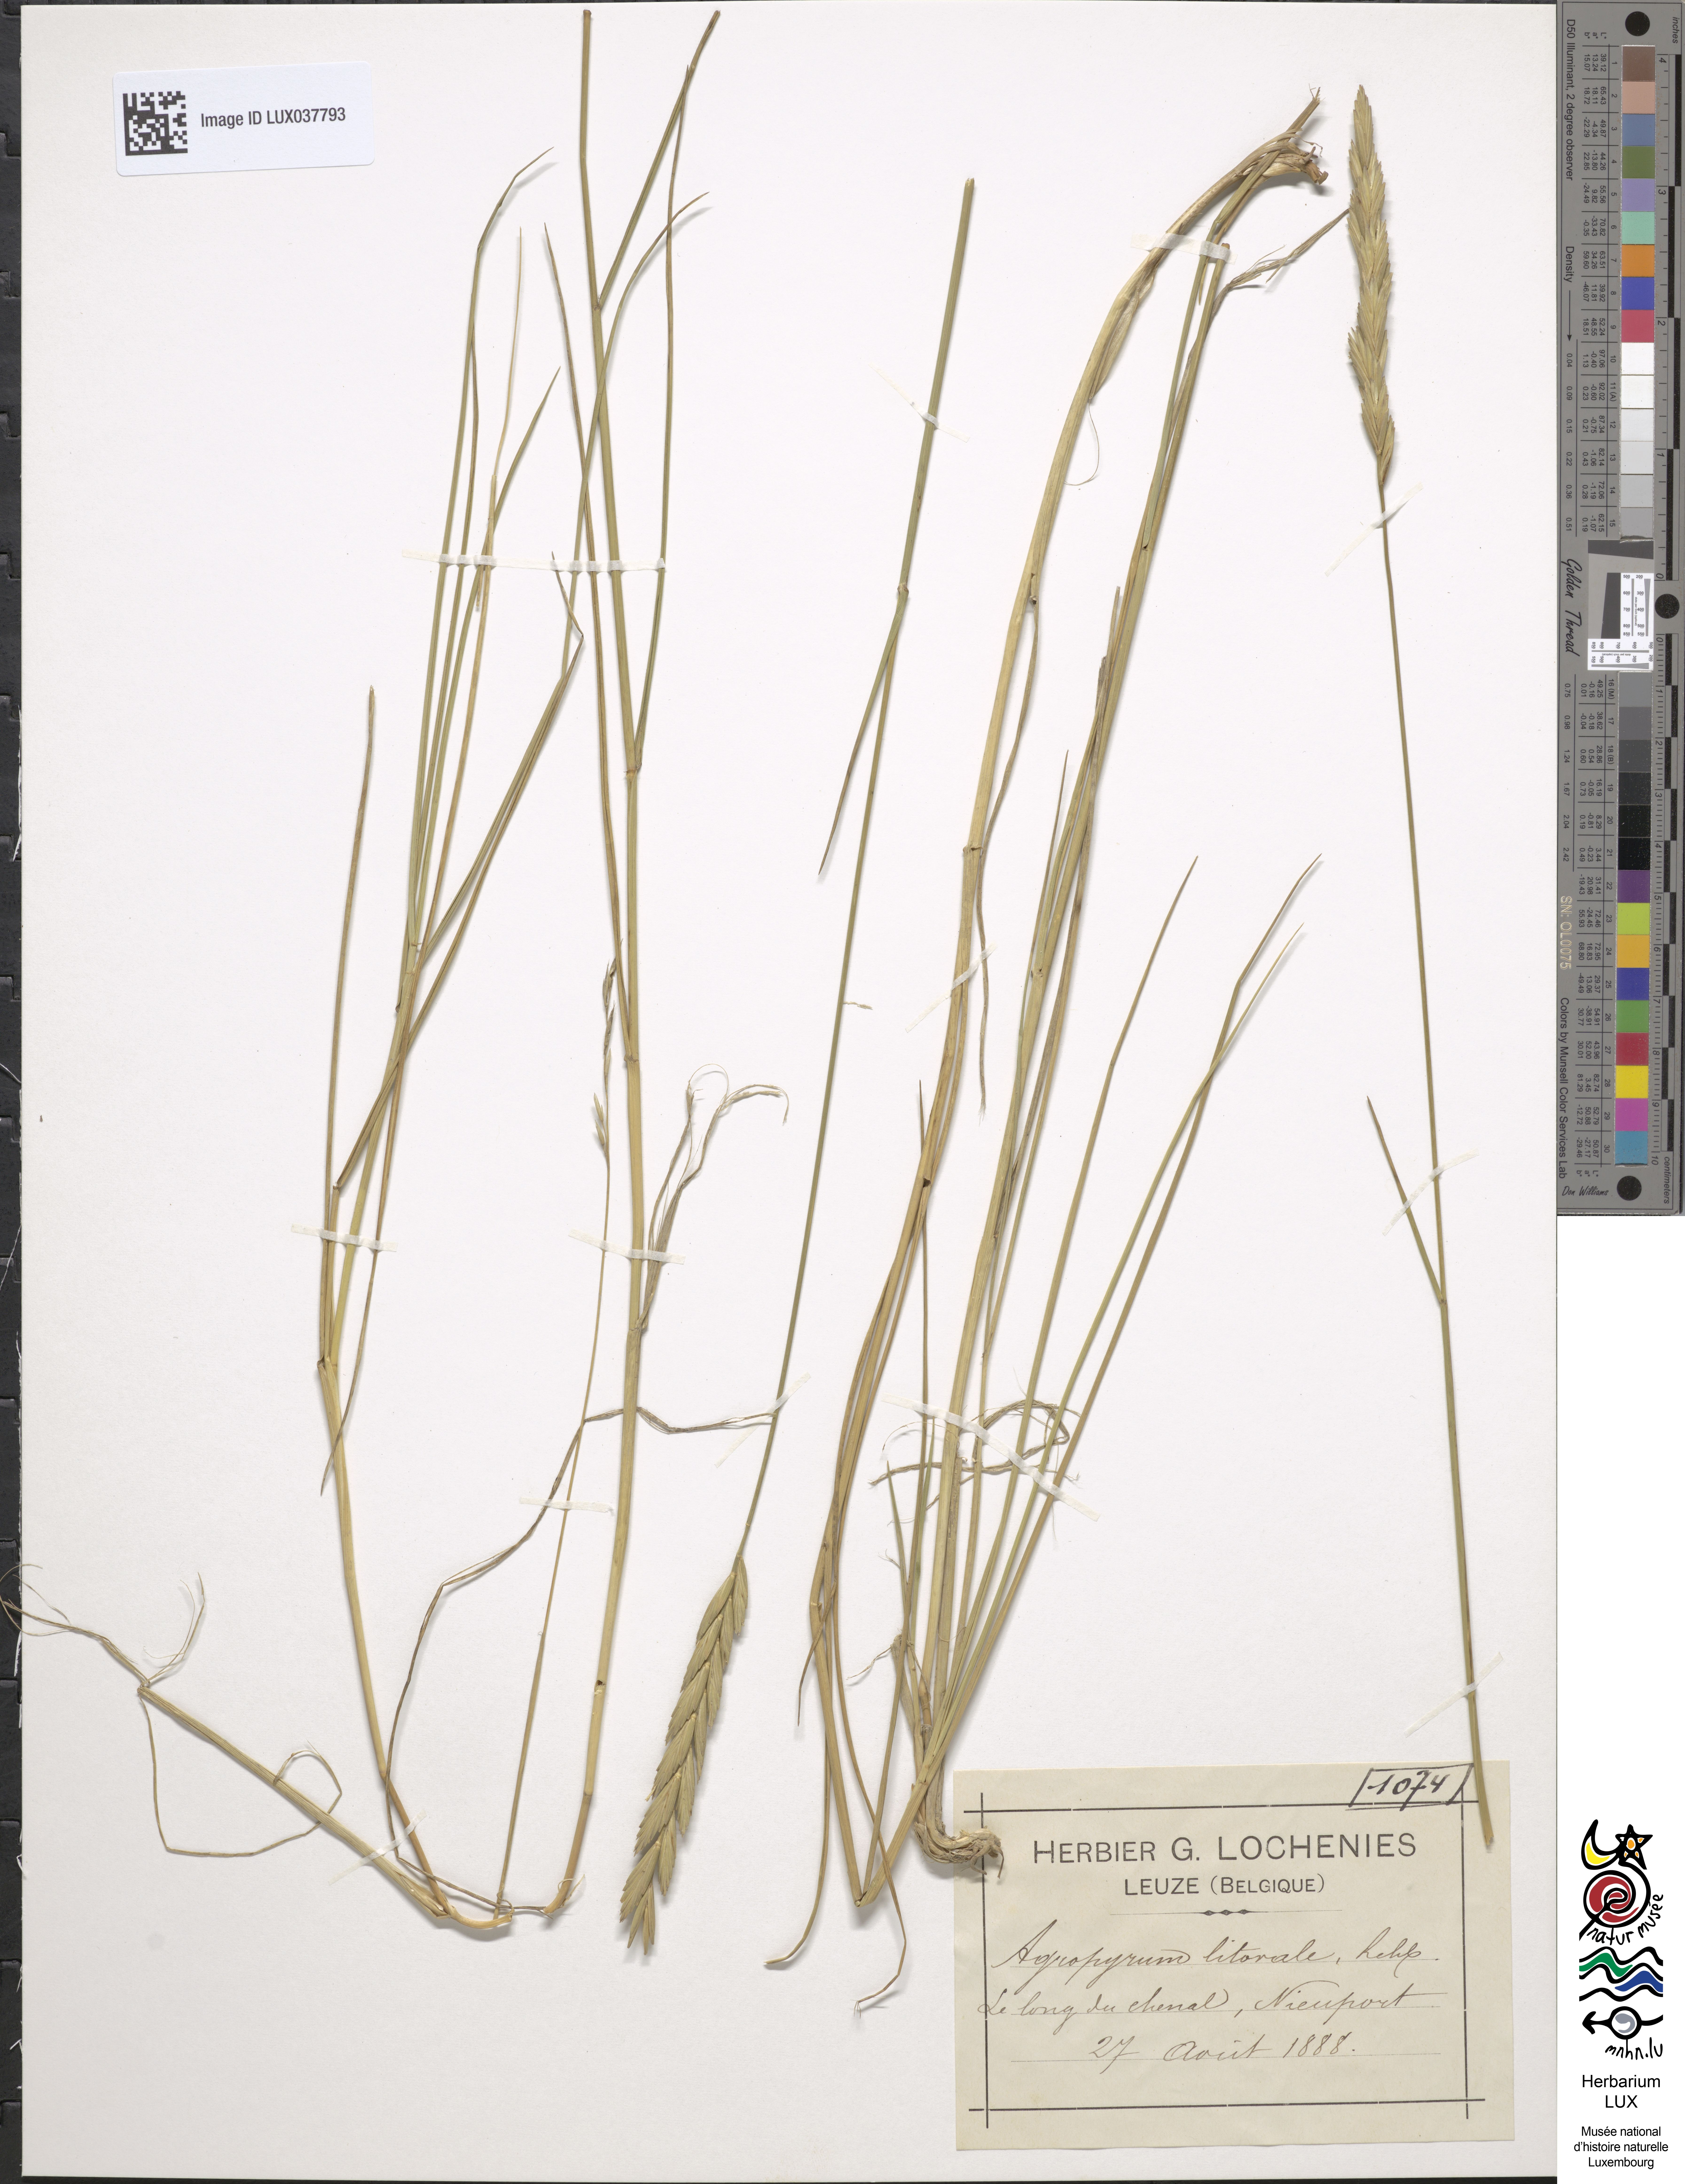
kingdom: Plantae
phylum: Tracheophyta
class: Liliopsida
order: Poales
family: Poaceae
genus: Elymus
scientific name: Elymus repens
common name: Quackgrass
